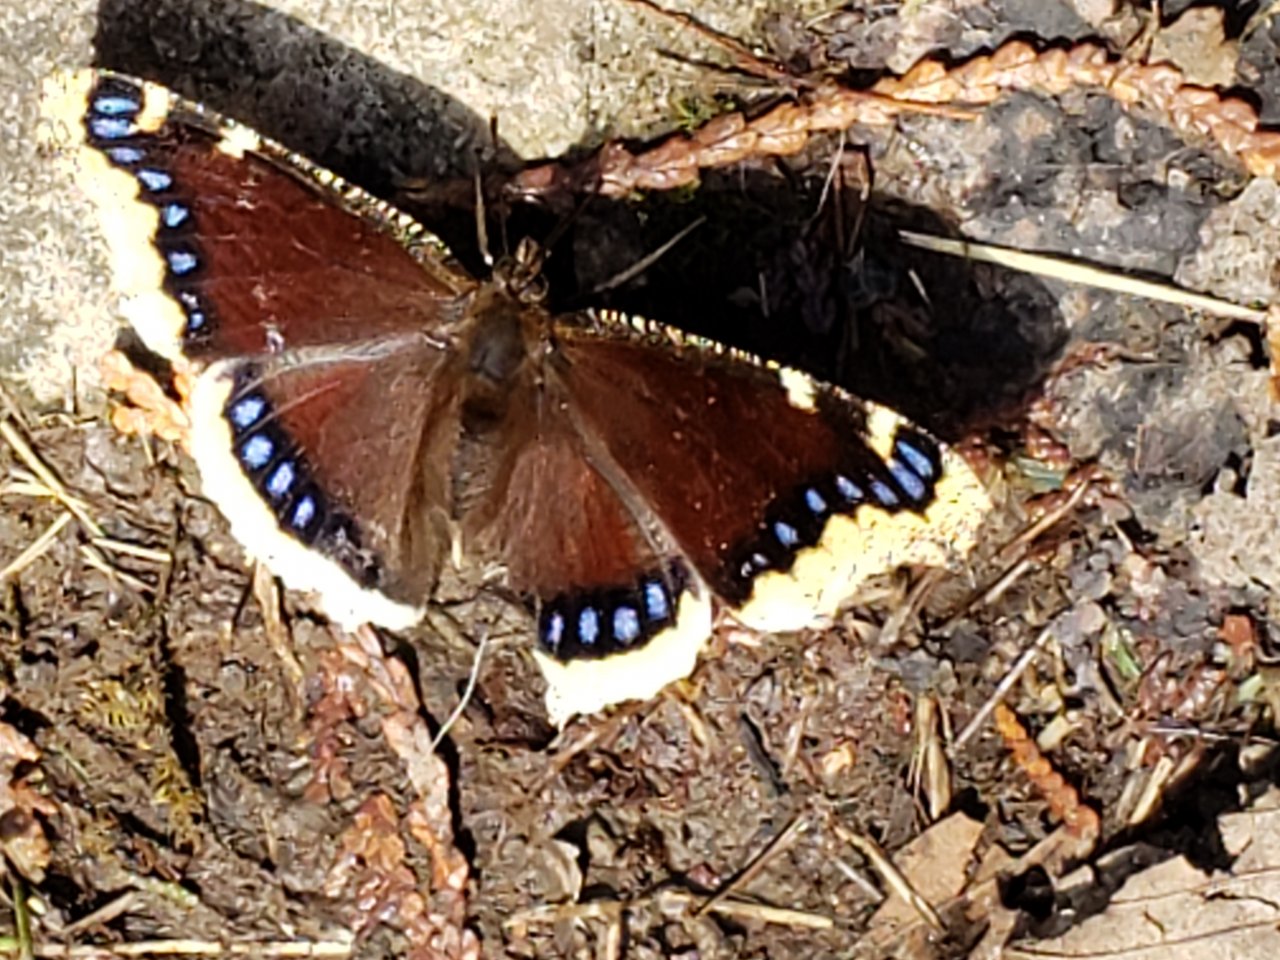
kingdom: Animalia
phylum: Arthropoda
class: Insecta
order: Lepidoptera
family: Nymphalidae
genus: Nymphalis
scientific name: Nymphalis antiopa
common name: Mourning Cloak
